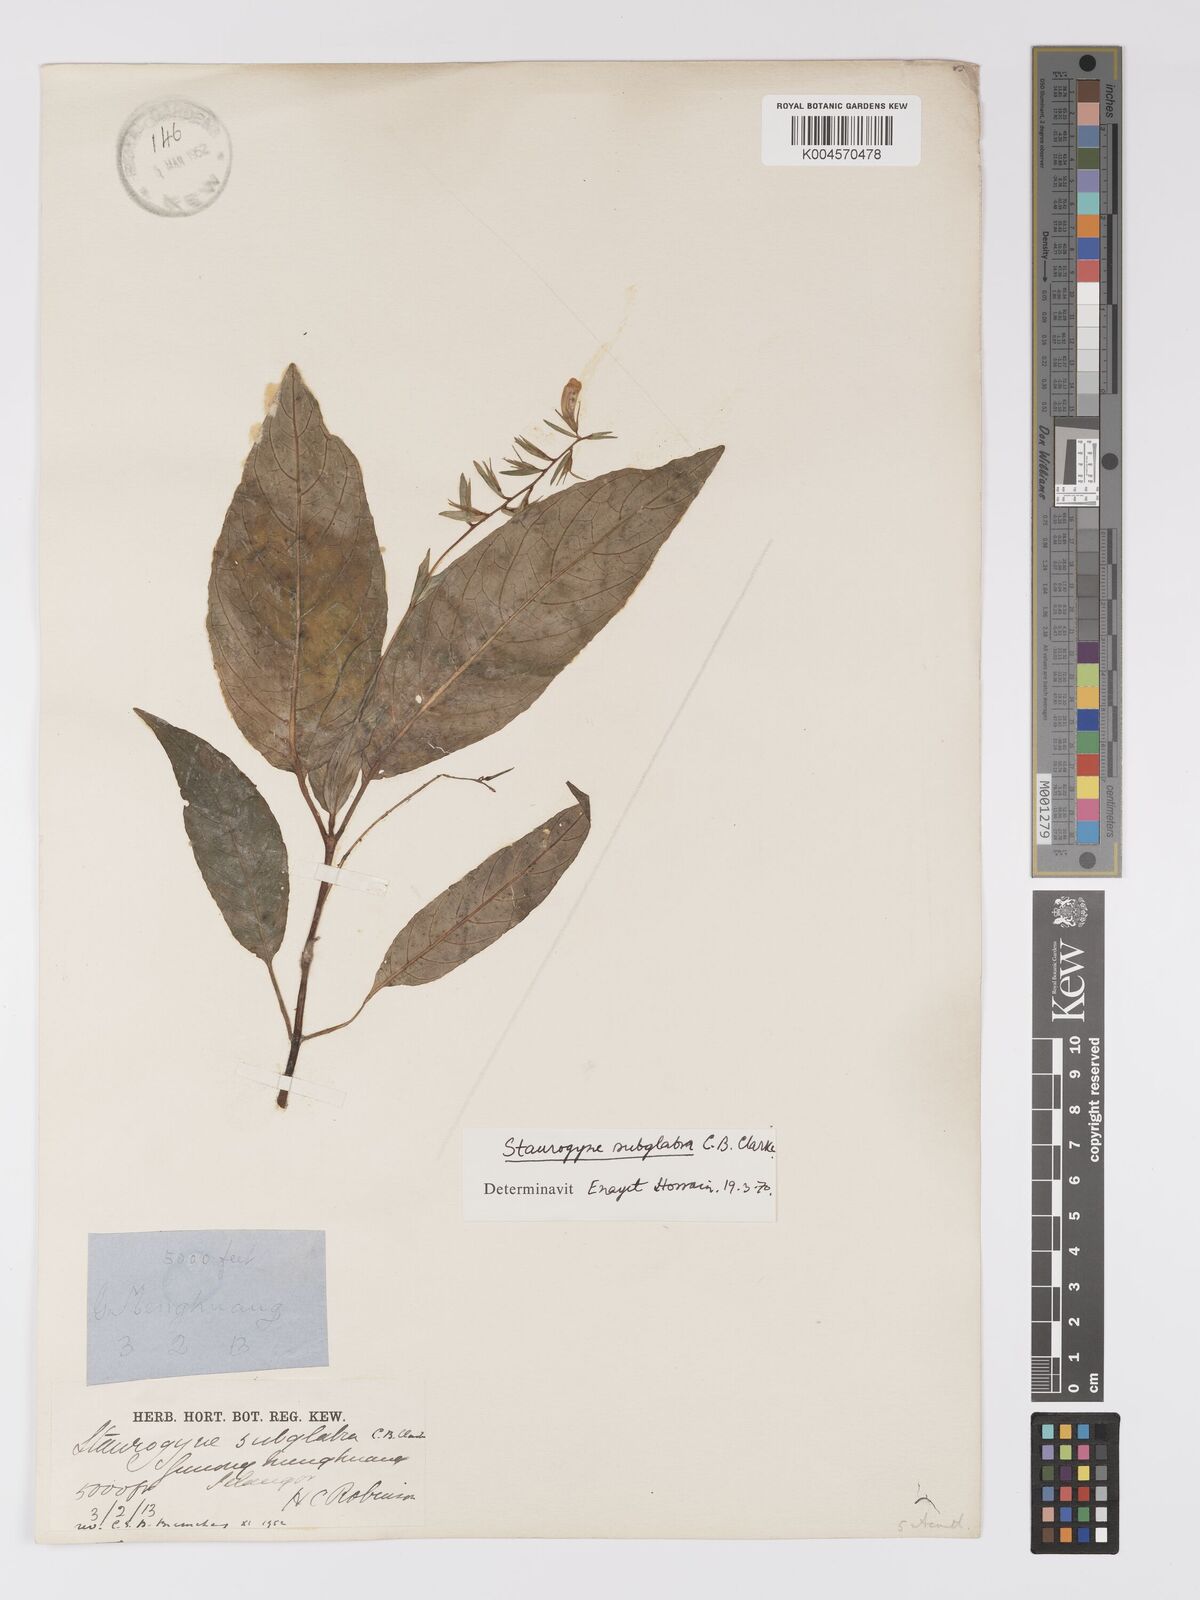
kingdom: Plantae
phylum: Tracheophyta
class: Magnoliopsida
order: Lamiales
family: Acanthaceae
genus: Staurogyne
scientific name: Staurogyne subglabra
